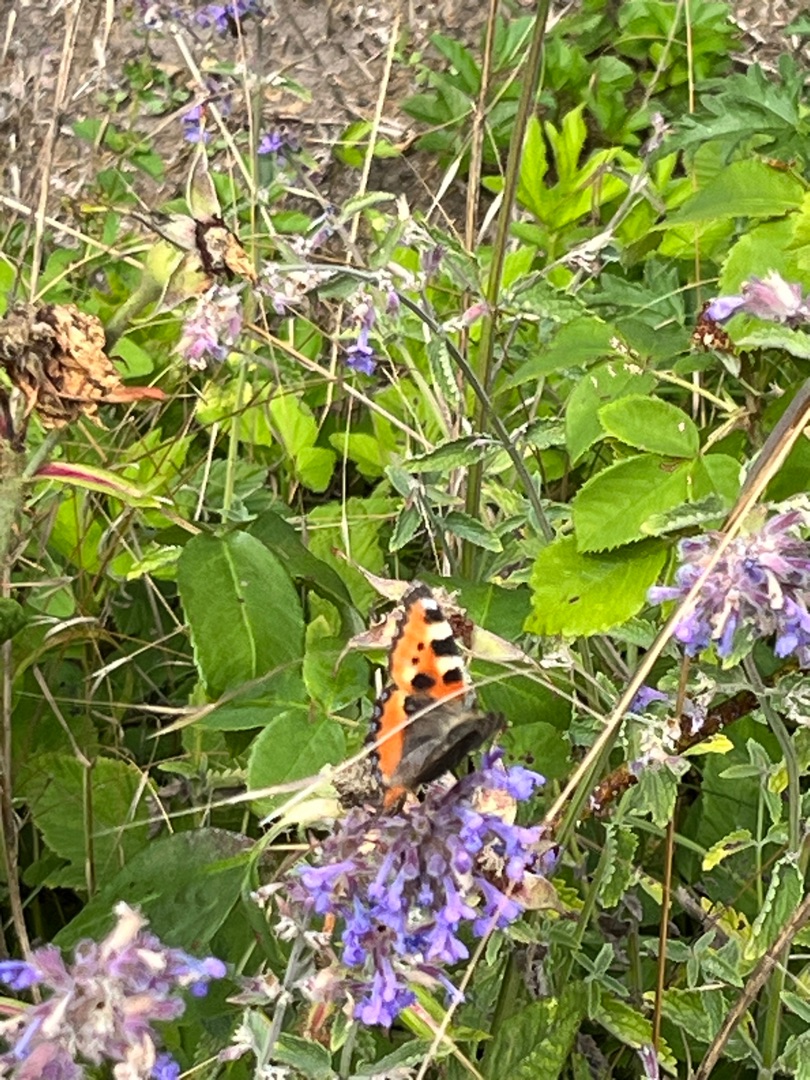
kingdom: Animalia
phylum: Arthropoda
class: Insecta
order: Lepidoptera
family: Nymphalidae
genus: Aglais
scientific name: Aglais urticae
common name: Nældens takvinge
